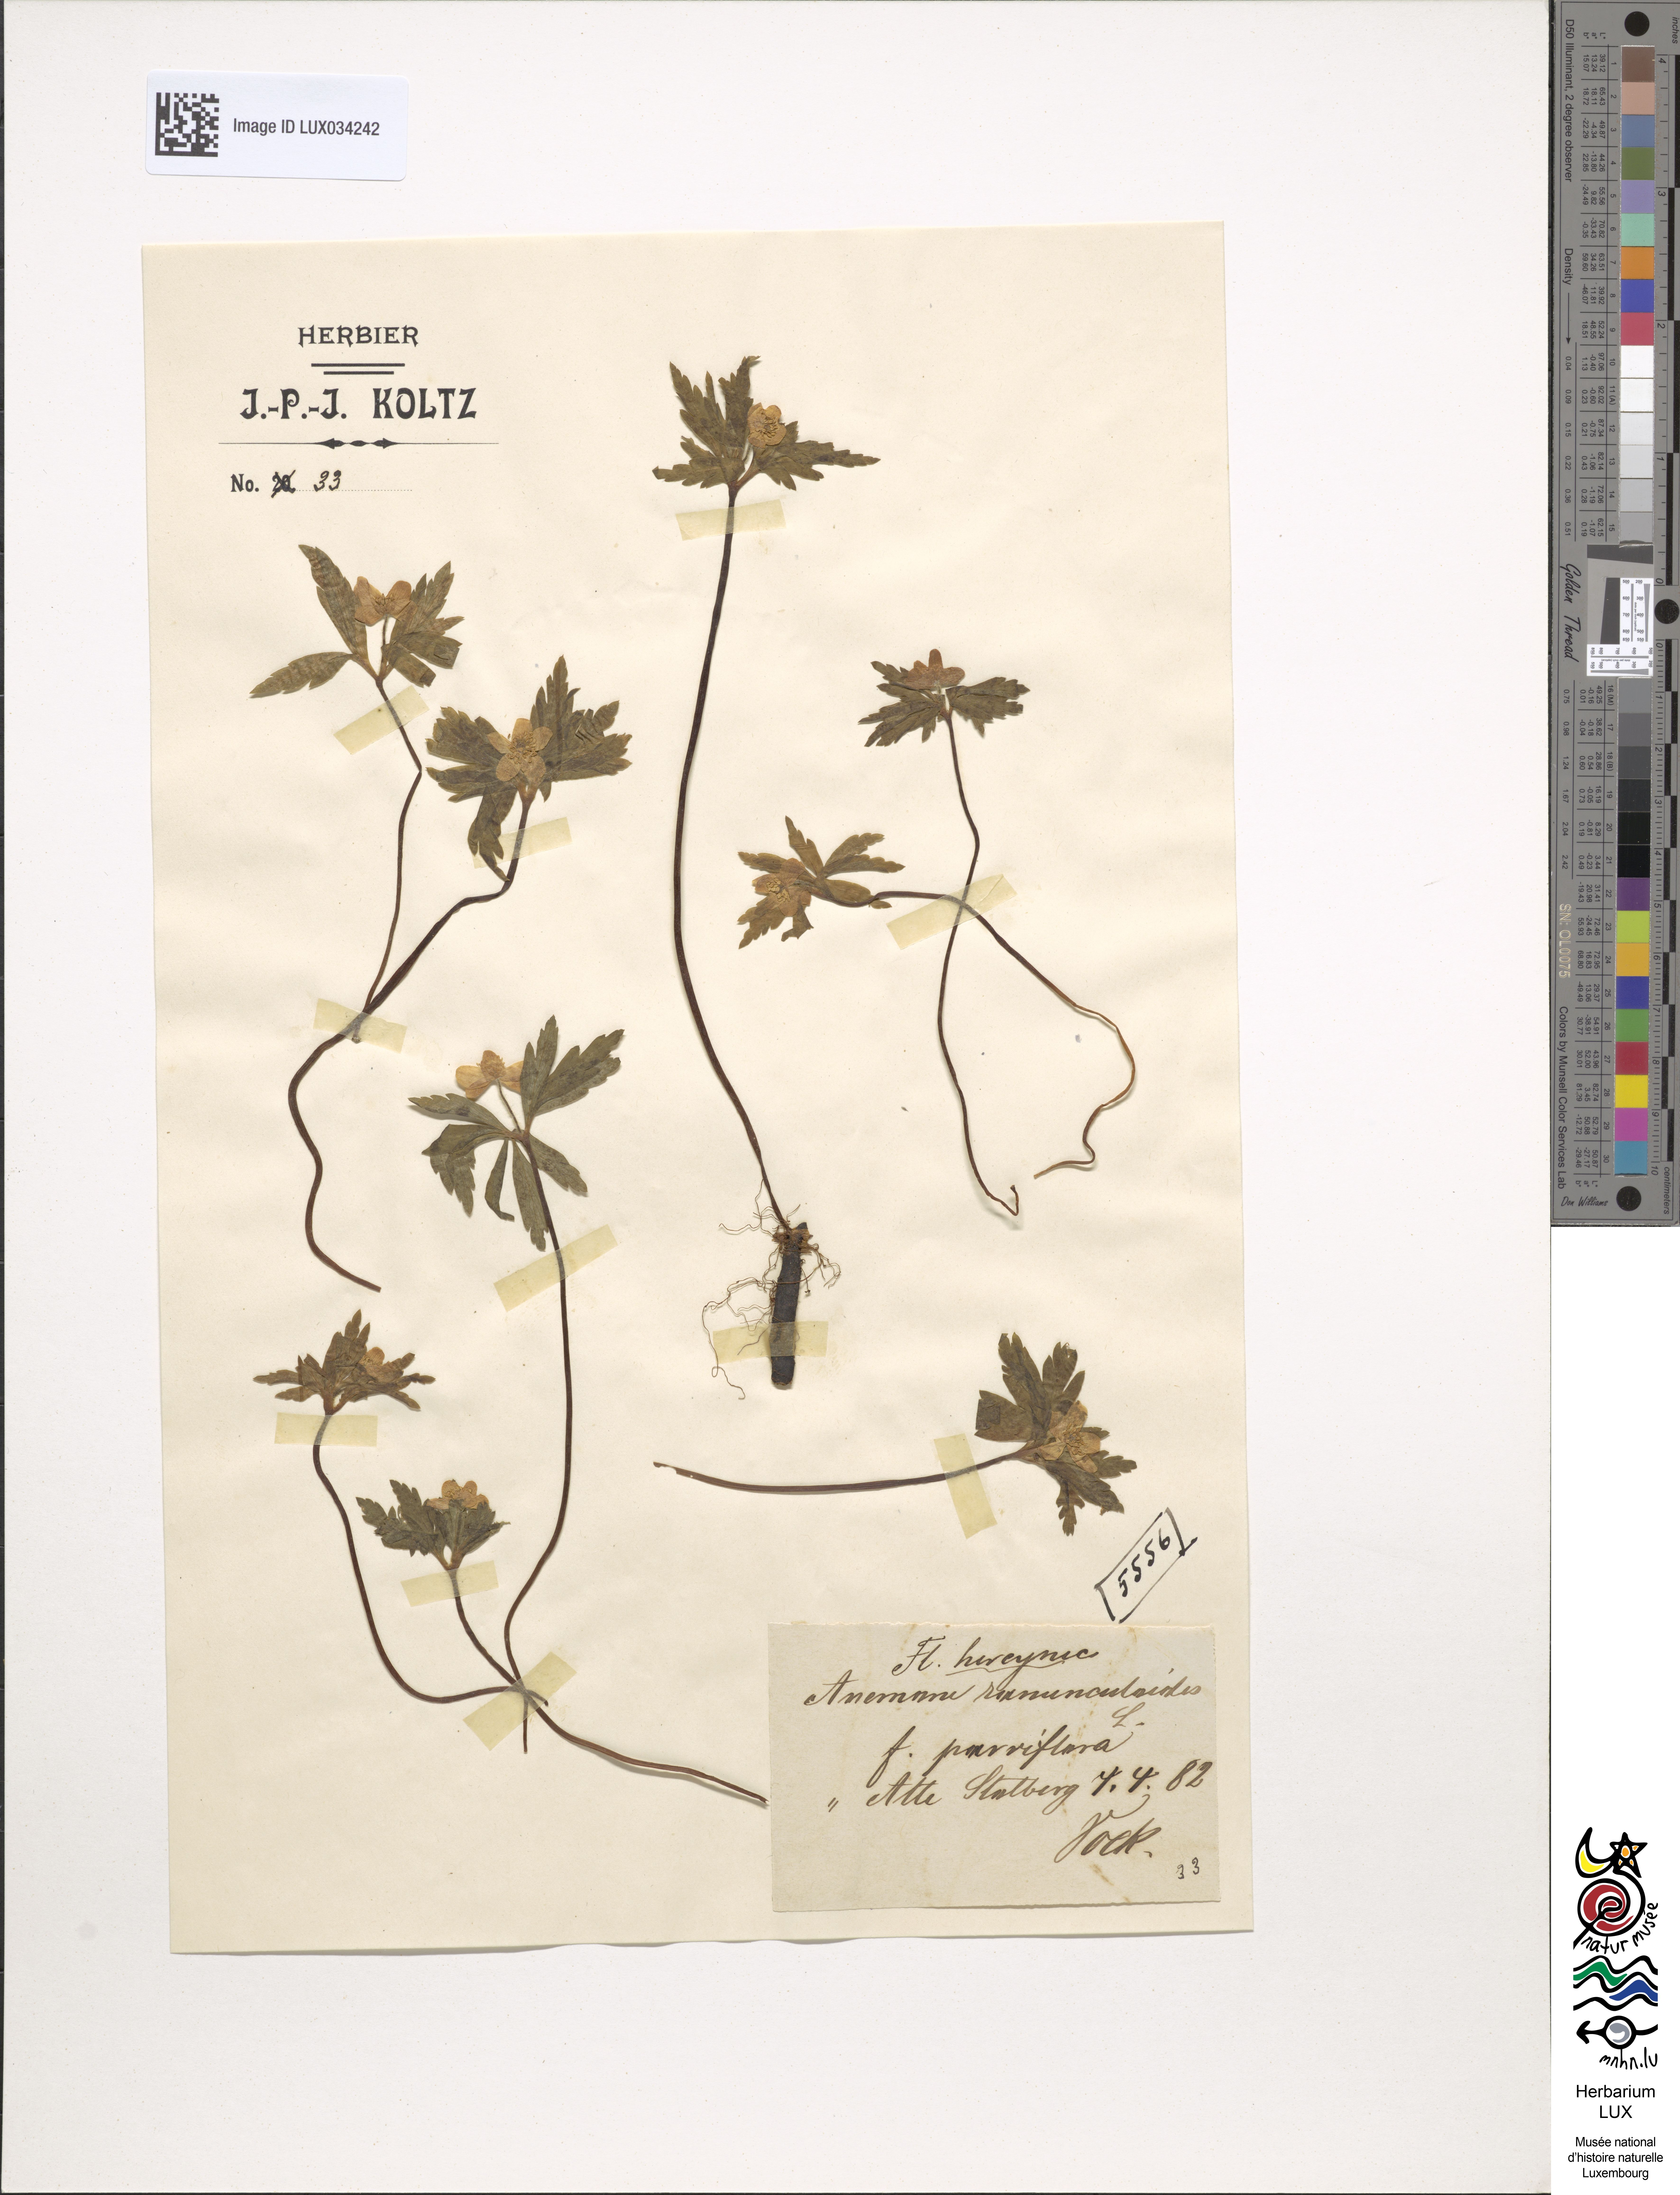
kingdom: Plantae
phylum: Tracheophyta
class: Magnoliopsida
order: Ranunculales
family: Ranunculaceae
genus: Anemone
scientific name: Anemone ranunculoides
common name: Yellow anemone
